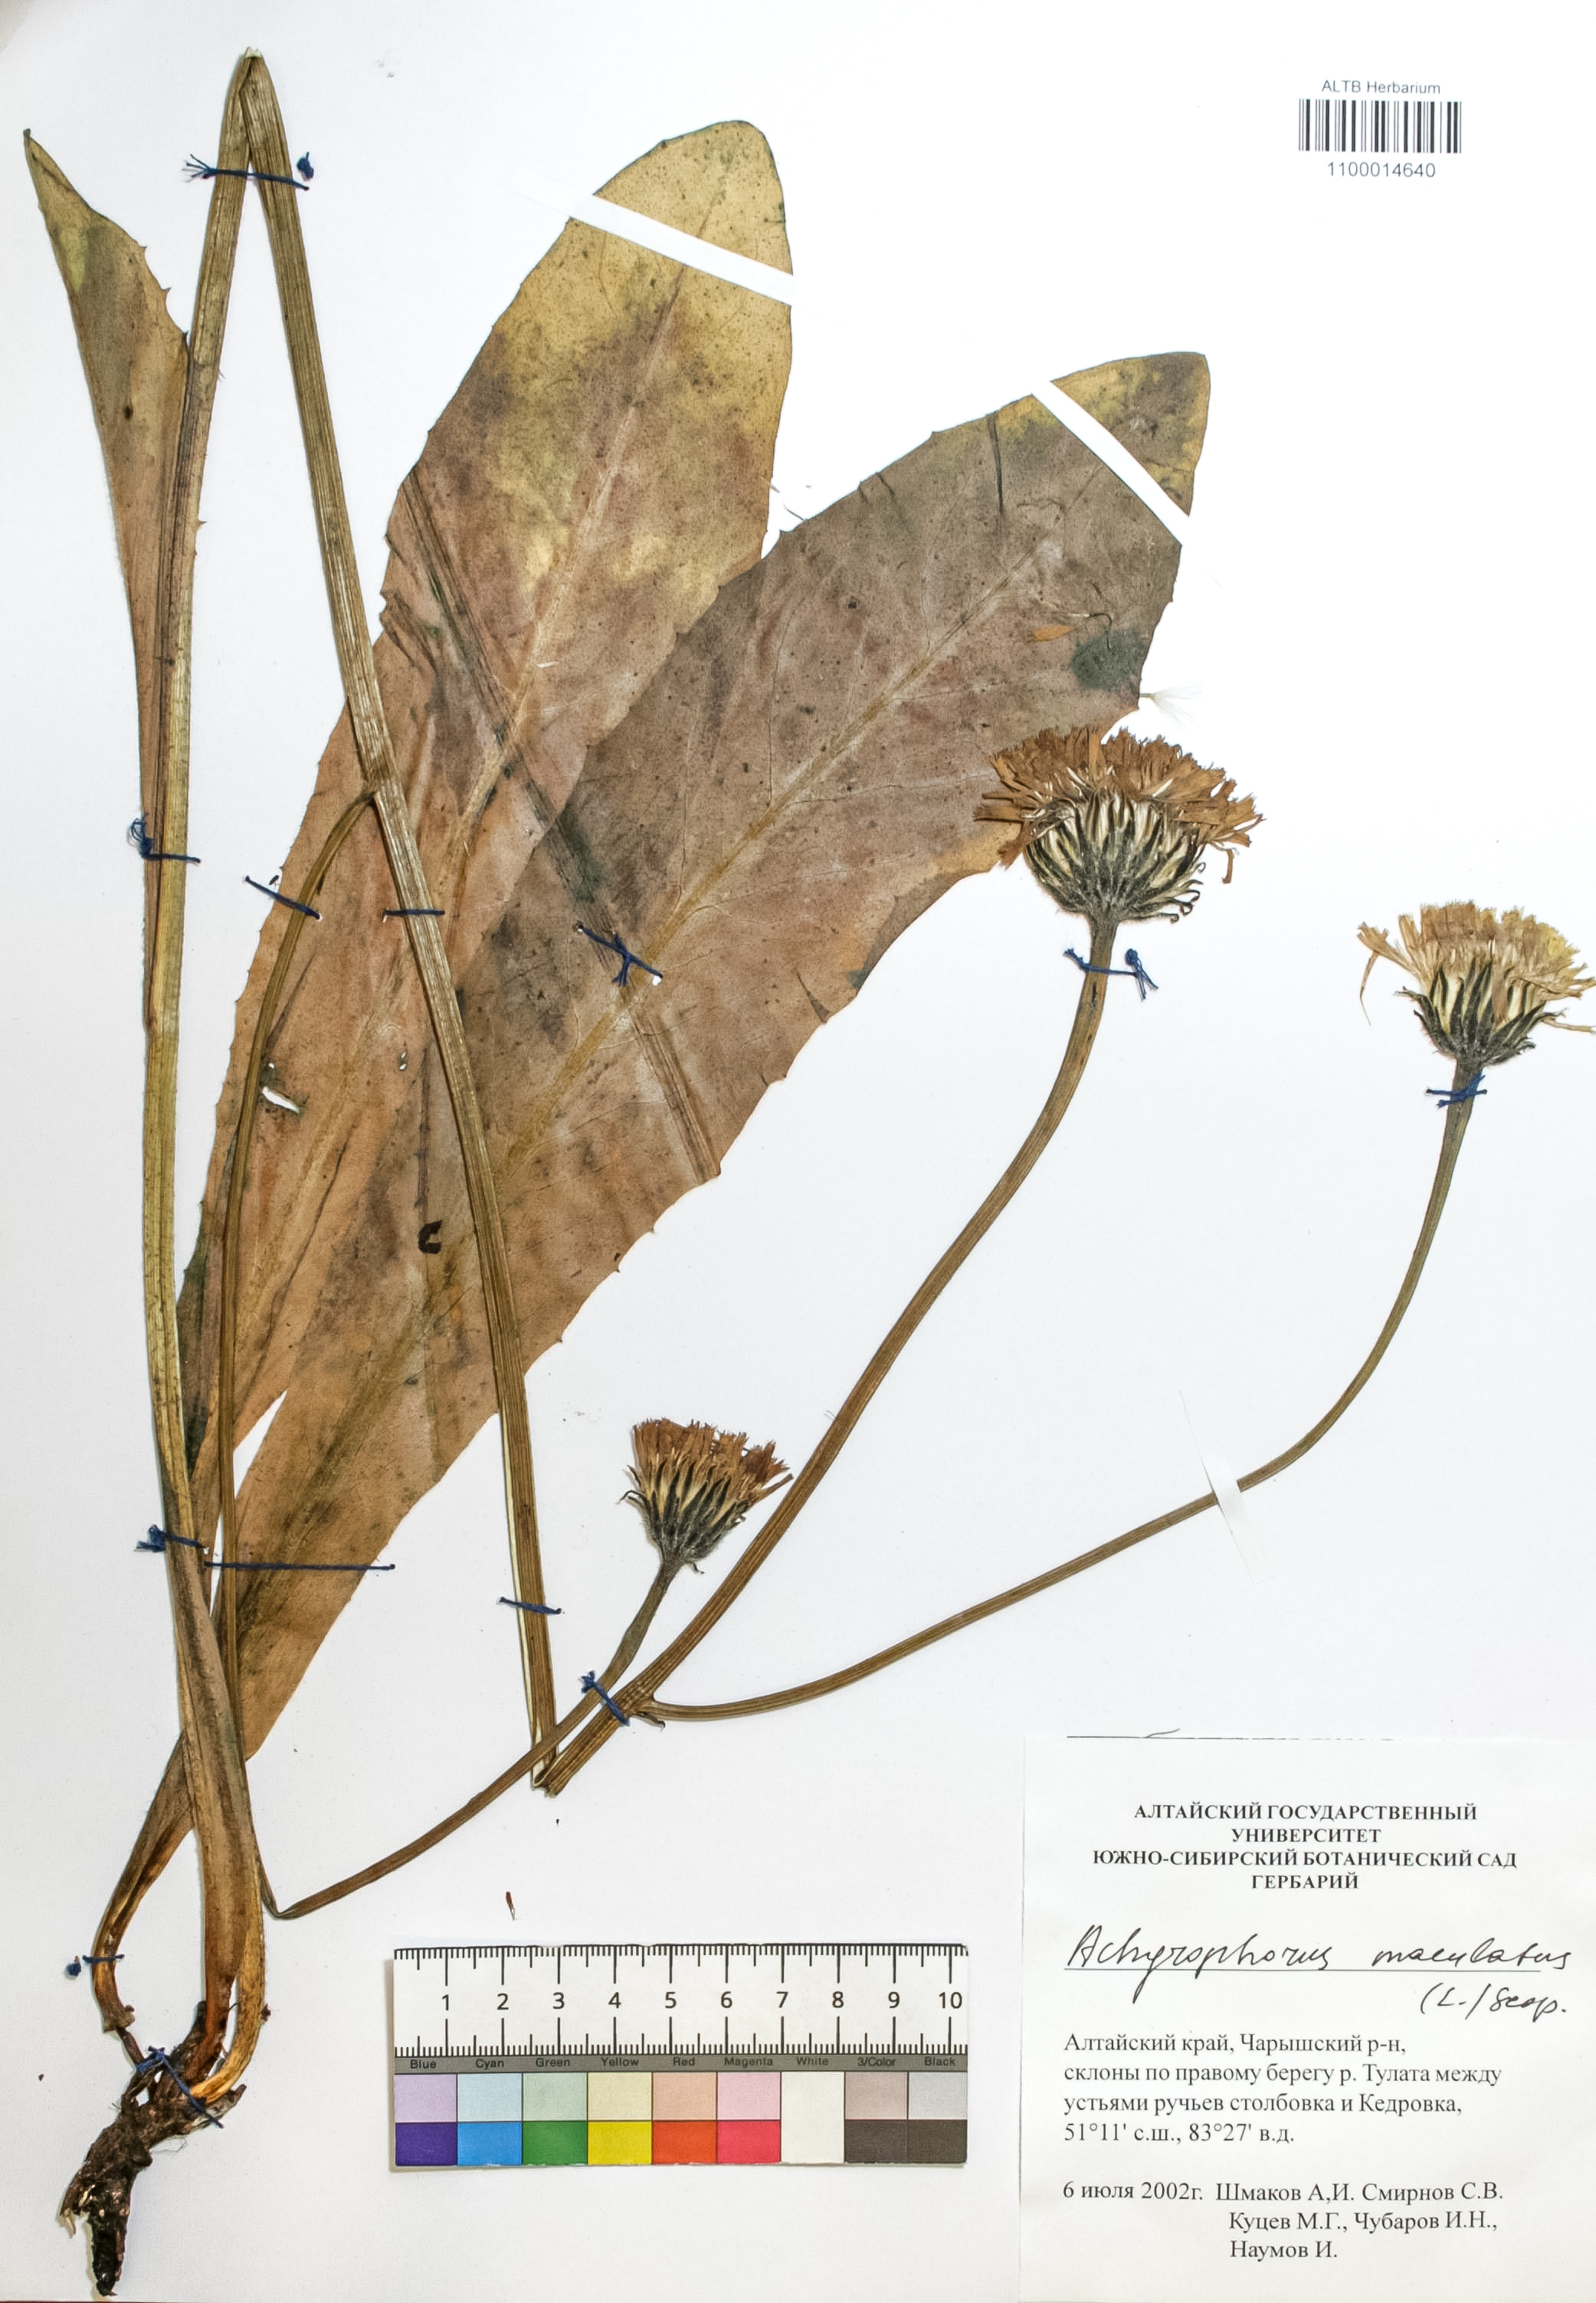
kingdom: Plantae
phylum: Tracheophyta
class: Magnoliopsida
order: Asterales
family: Asteraceae
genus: Trommsdorffia
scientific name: Trommsdorffia maculata
